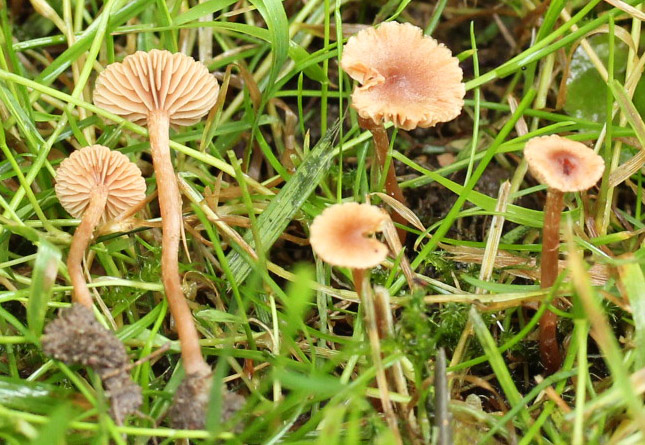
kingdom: Fungi
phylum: Basidiomycota
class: Agaricomycetes
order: Agaricales
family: Tubariaceae
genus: Tubaria
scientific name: Tubaria conspersa
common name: bleg fnughat
